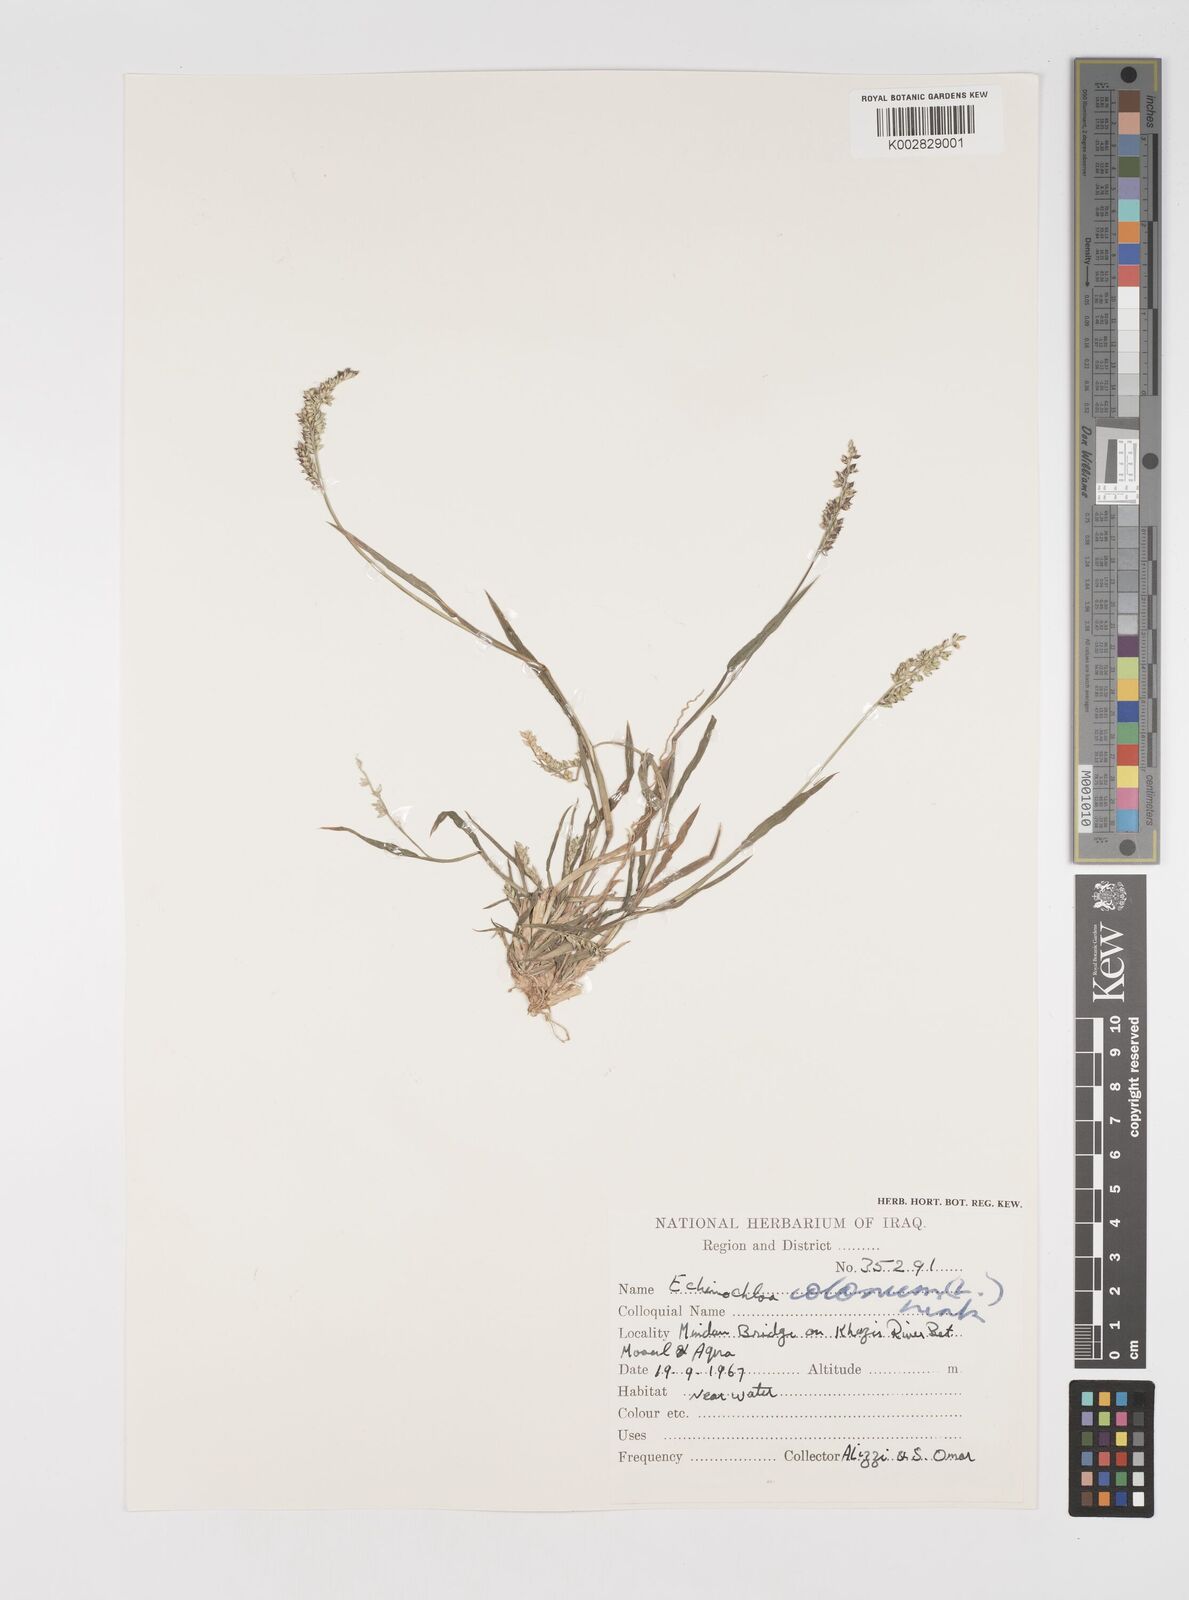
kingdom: Plantae
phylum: Tracheophyta
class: Liliopsida
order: Poales
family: Poaceae
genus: Echinochloa
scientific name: Echinochloa colonum
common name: Jungle rice
